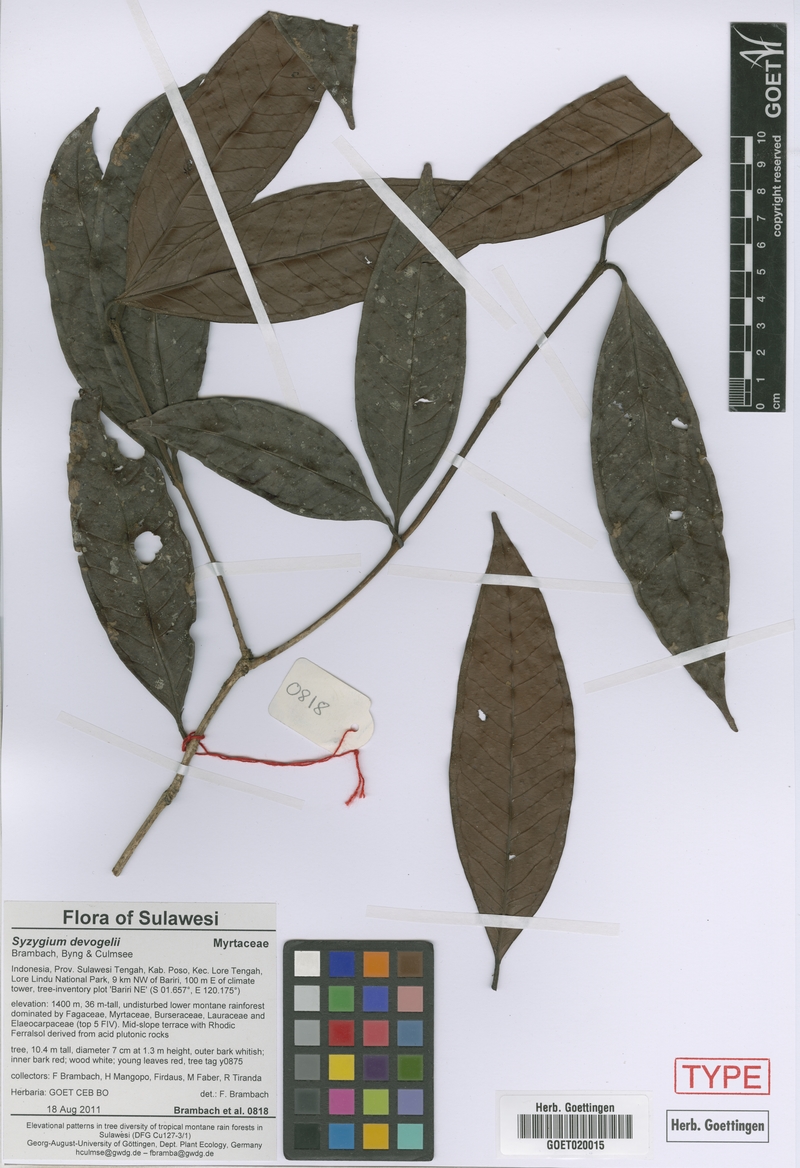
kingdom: Plantae
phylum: Tracheophyta
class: Magnoliopsida
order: Myrtales
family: Myrtaceae
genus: Syzygium
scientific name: Syzygium devogelii
